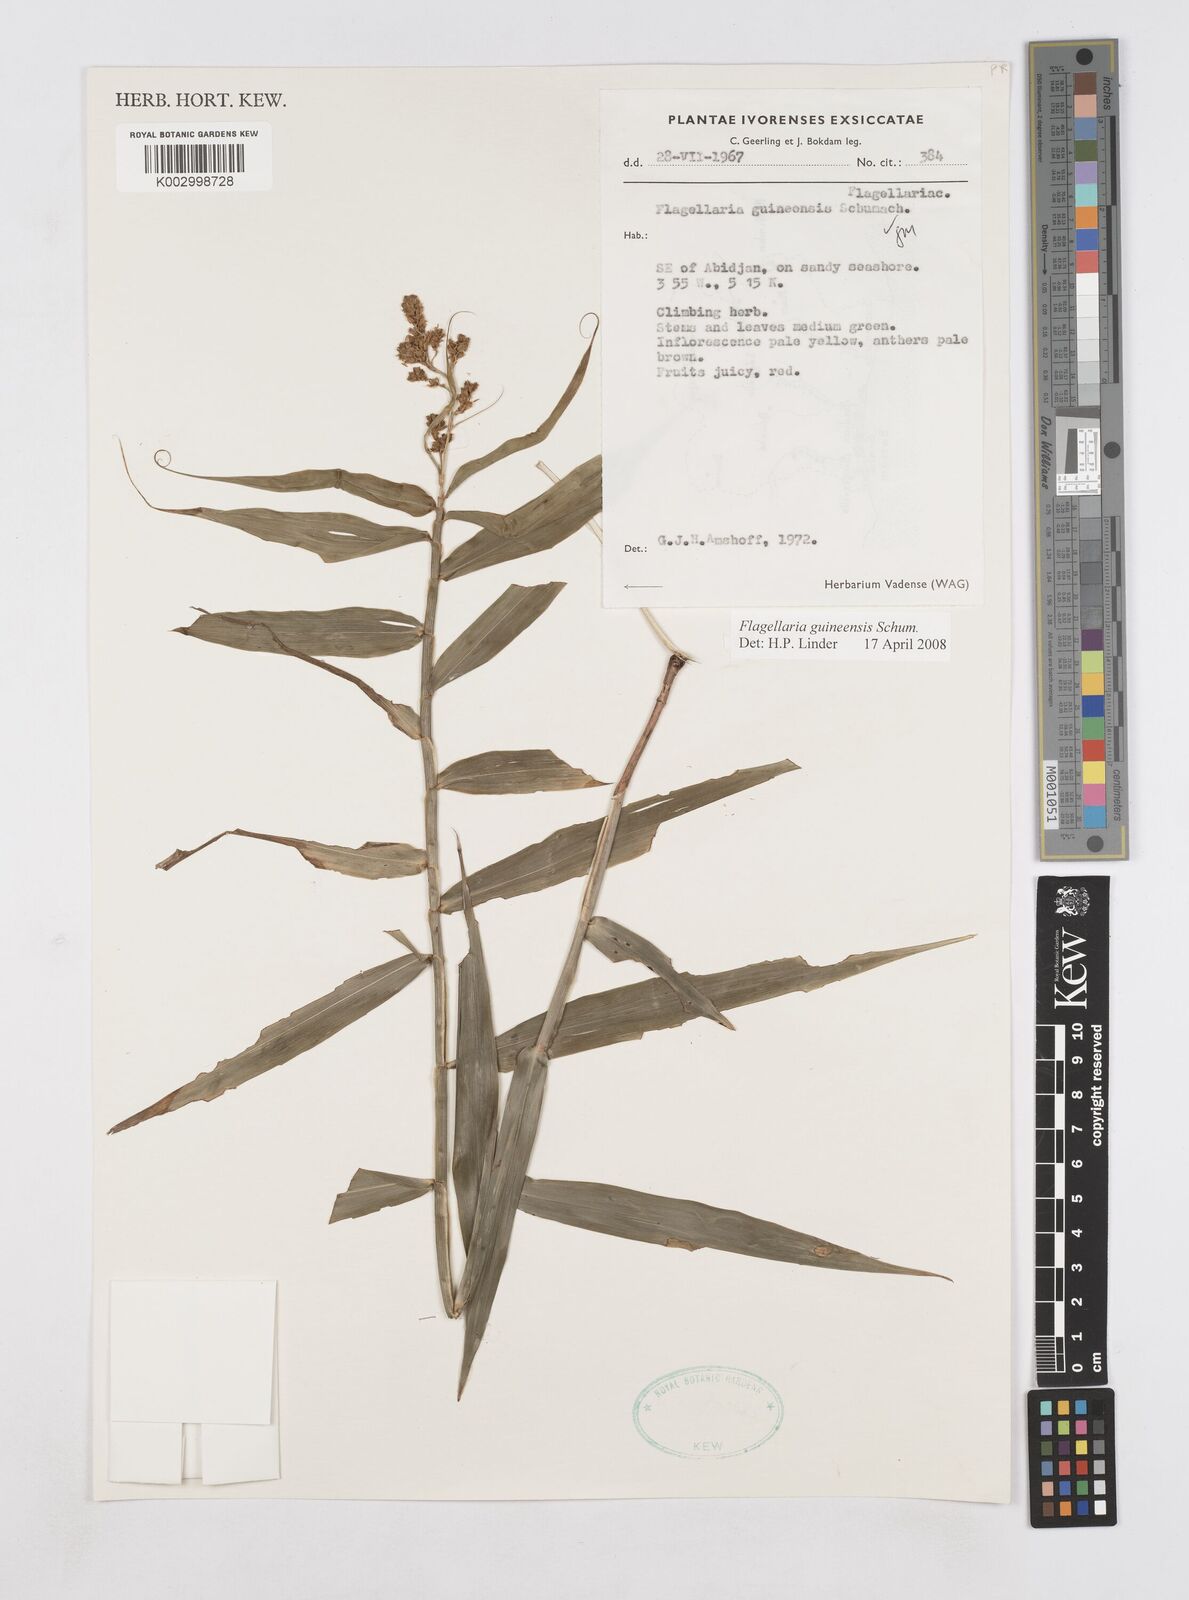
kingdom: Plantae
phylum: Tracheophyta
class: Liliopsida
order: Poales
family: Flagellariaceae
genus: Flagellaria
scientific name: Flagellaria guineensis
